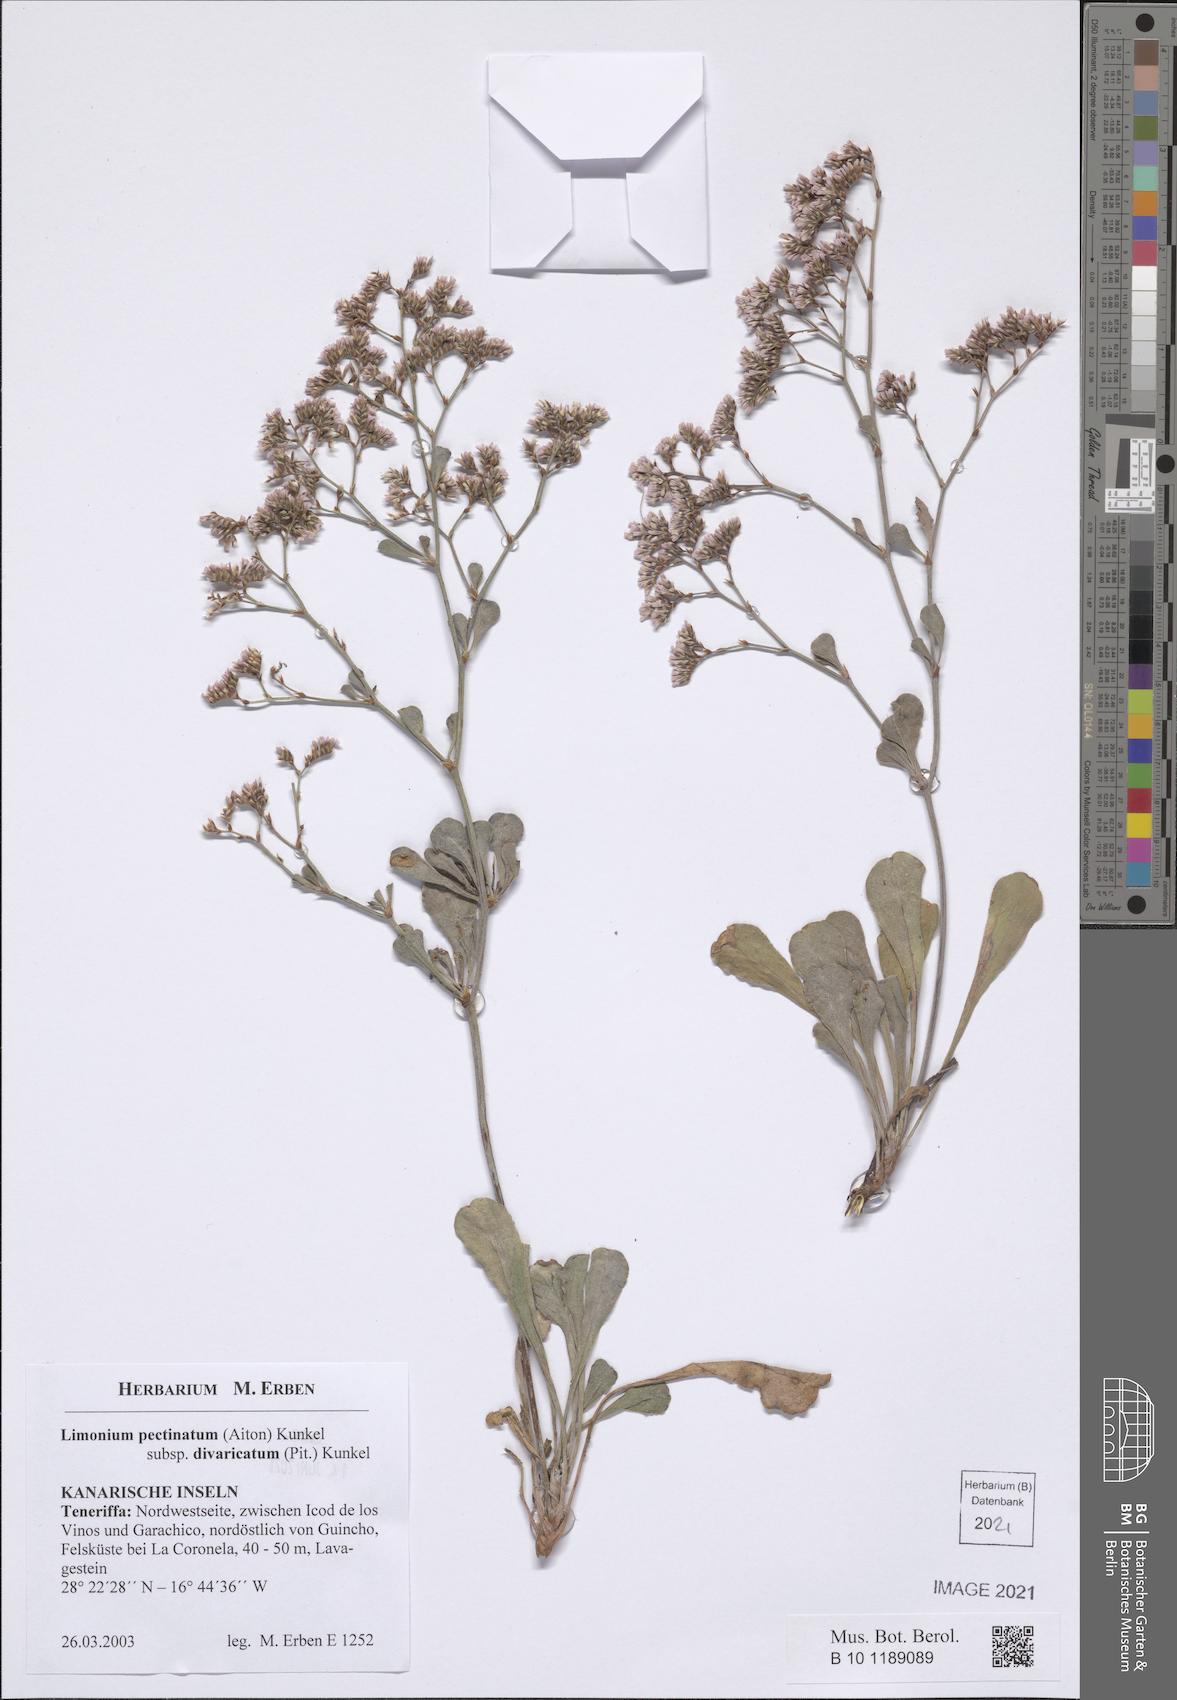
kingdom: Plantae
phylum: Tracheophyta
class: Magnoliopsida
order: Caryophyllales
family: Plumbaginaceae
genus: Limonium
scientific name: Limonium pectinatum
